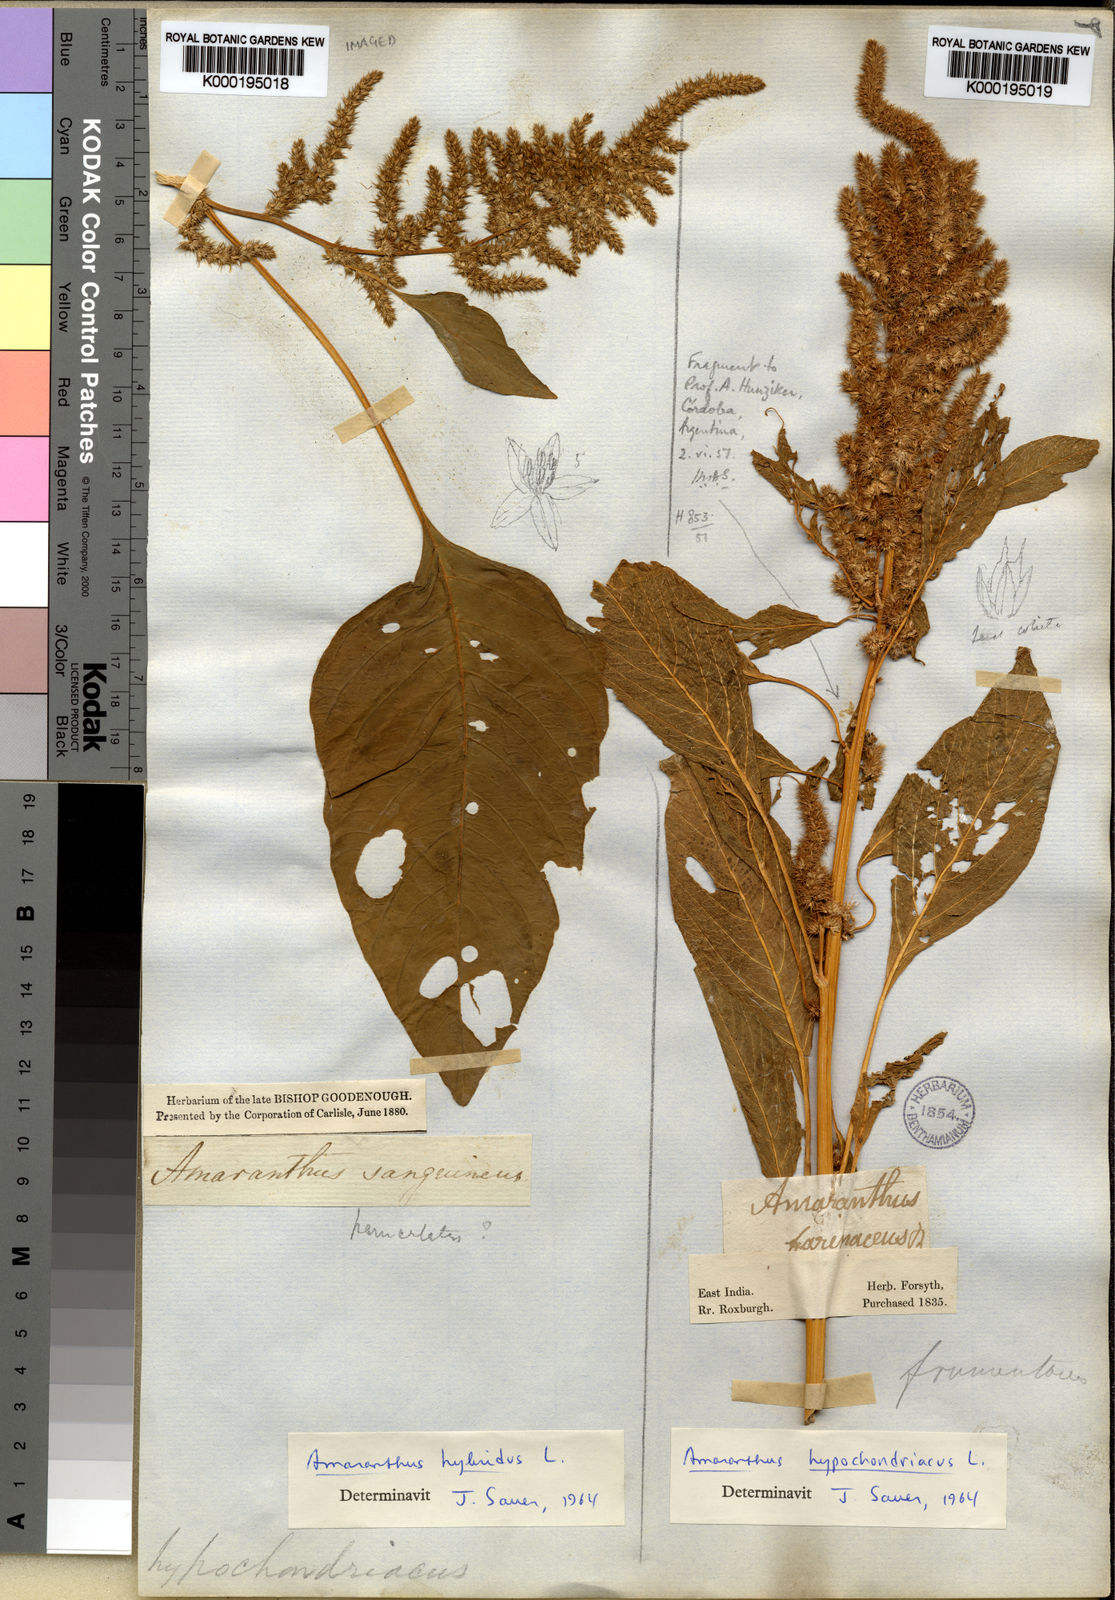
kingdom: Plantae
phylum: Tracheophyta
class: Magnoliopsida
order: Caryophyllales
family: Amaranthaceae
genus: Amaranthus
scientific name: Amaranthus hybridus
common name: Green amaranth
